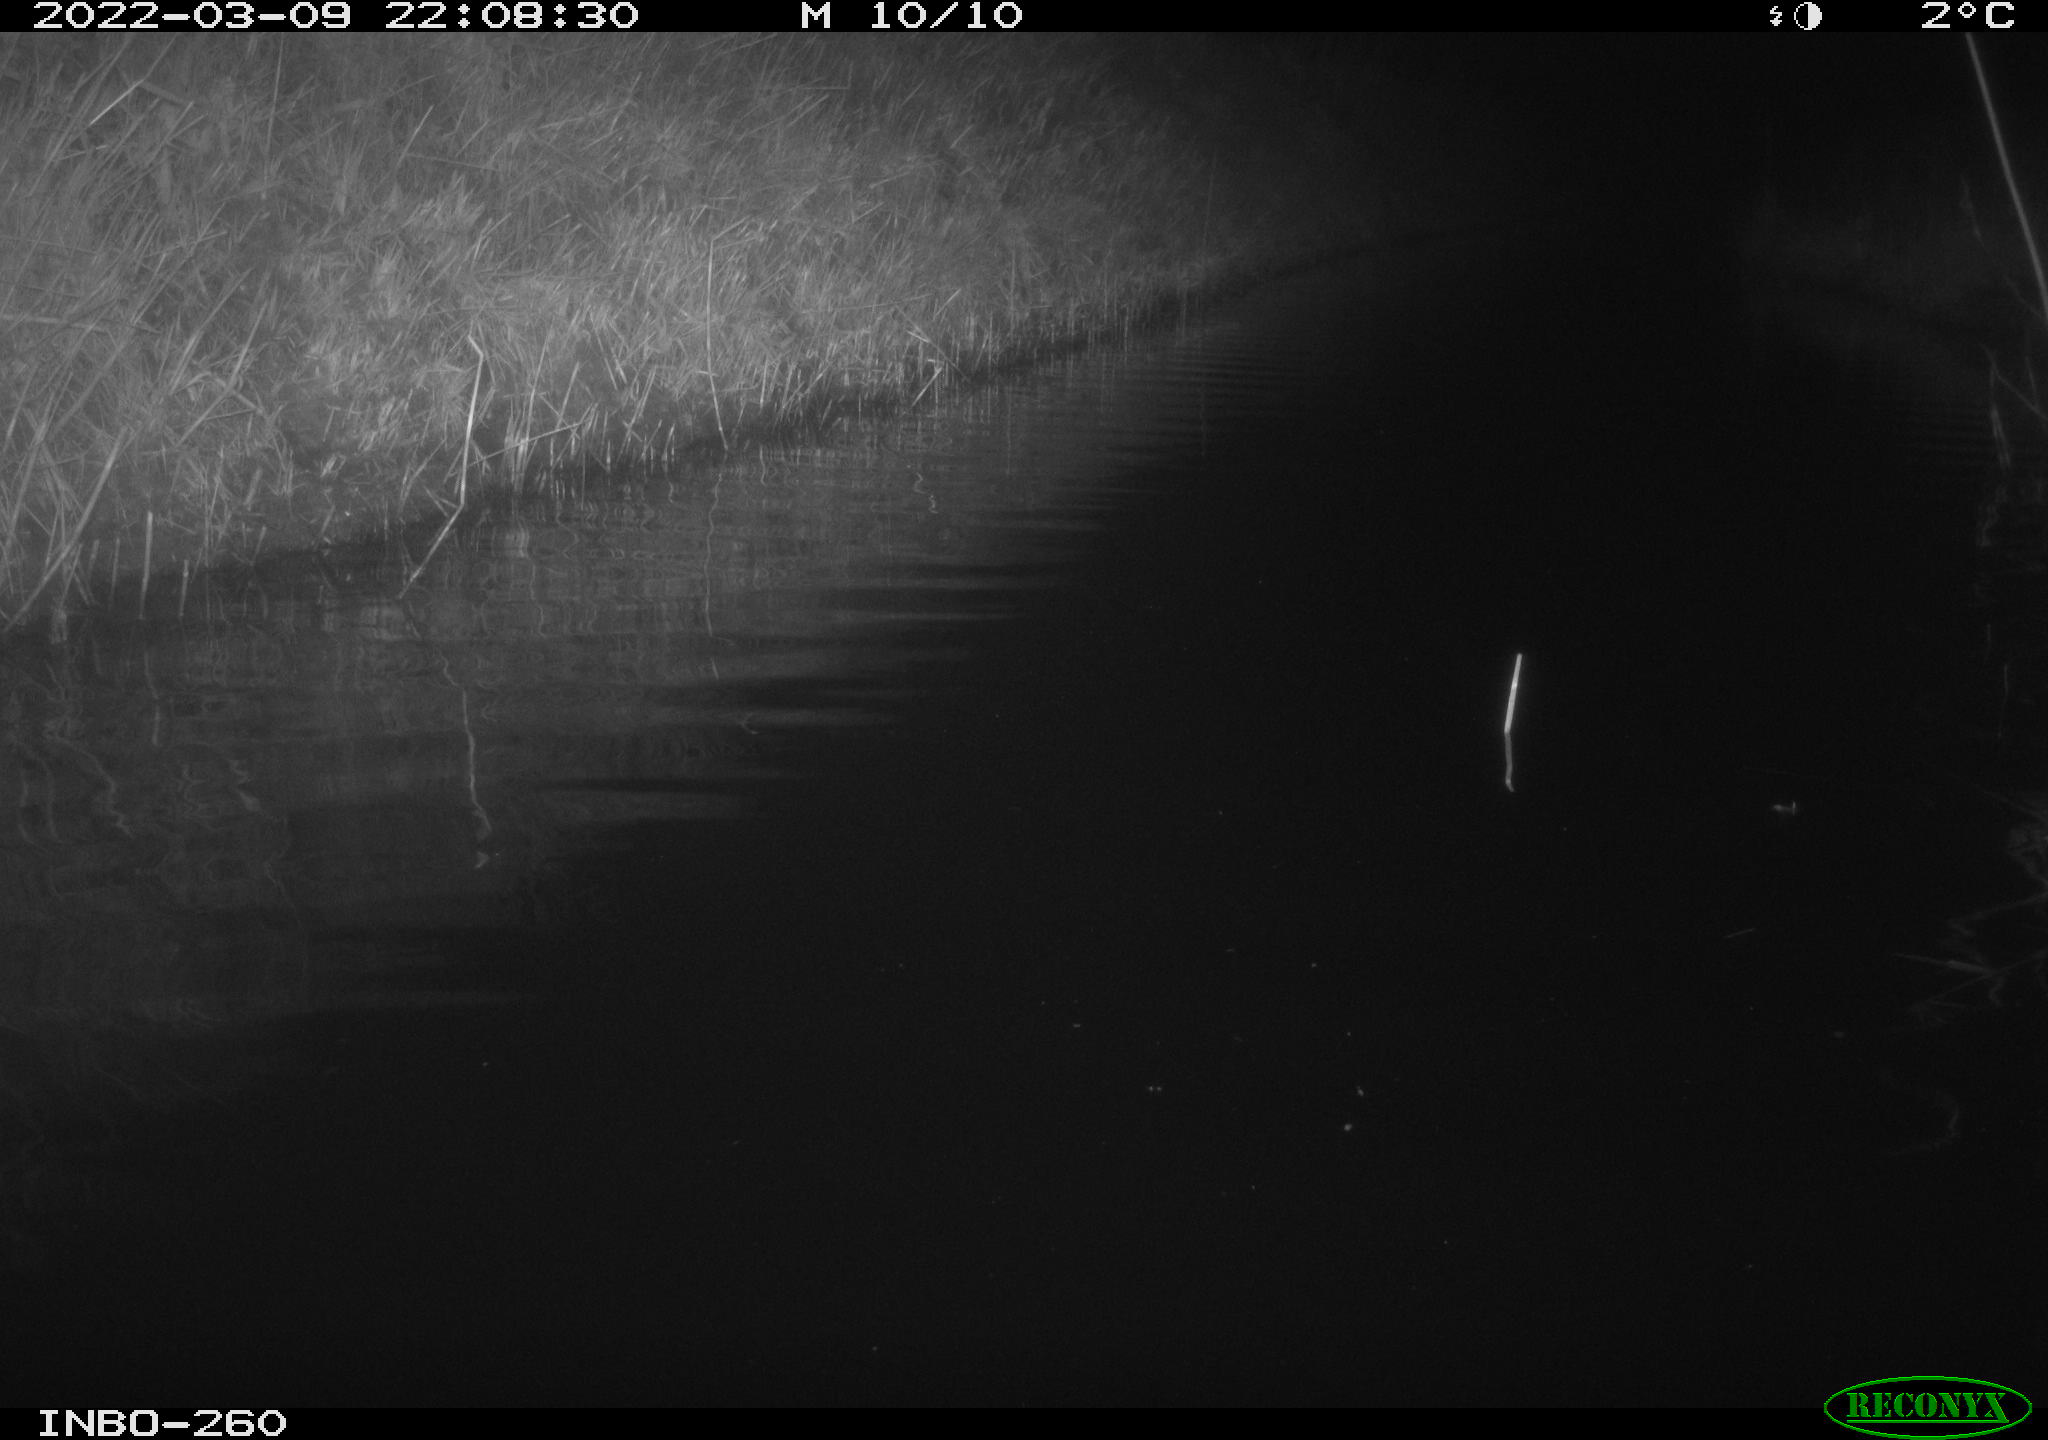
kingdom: Animalia
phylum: Chordata
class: Mammalia
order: Rodentia
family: Cricetidae
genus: Ondatra
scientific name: Ondatra zibethicus
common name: Muskrat
